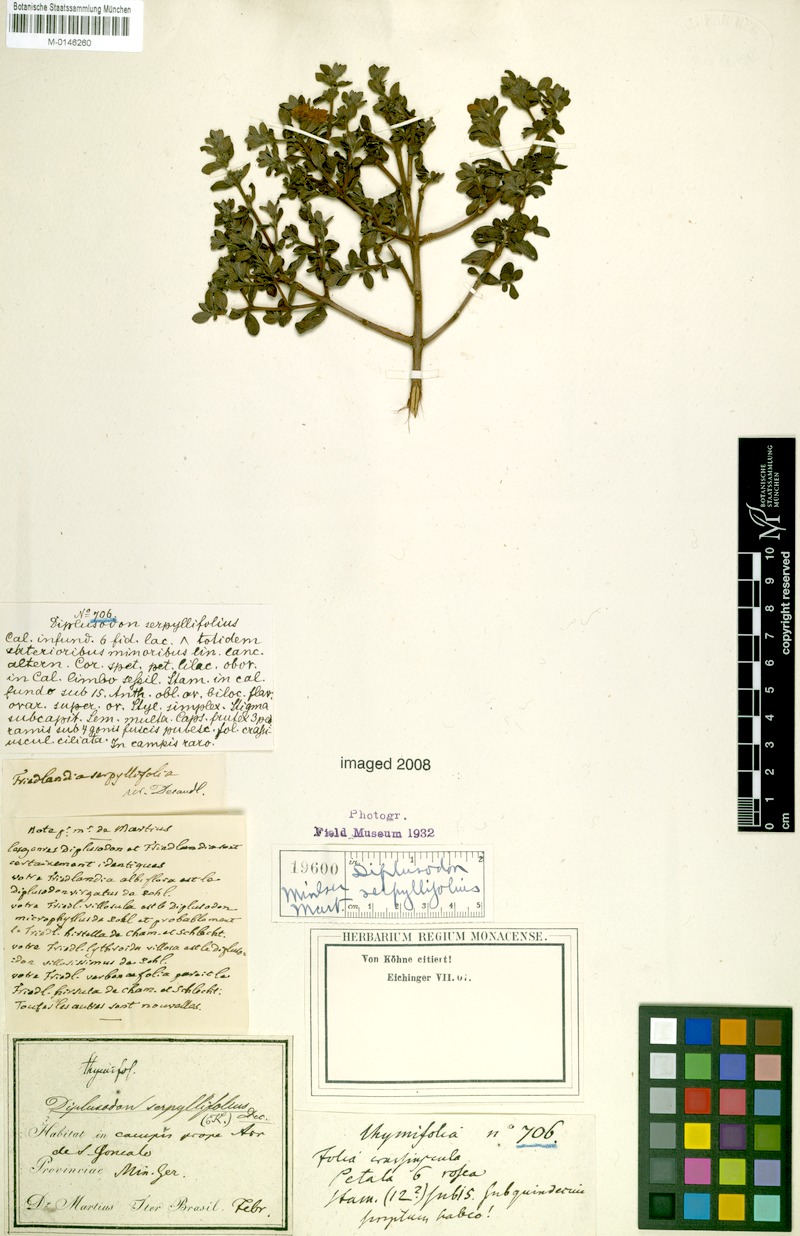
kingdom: Plantae
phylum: Tracheophyta
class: Magnoliopsida
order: Myrtales
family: Lythraceae
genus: Diplusodon
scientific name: Diplusodon hirsutus
